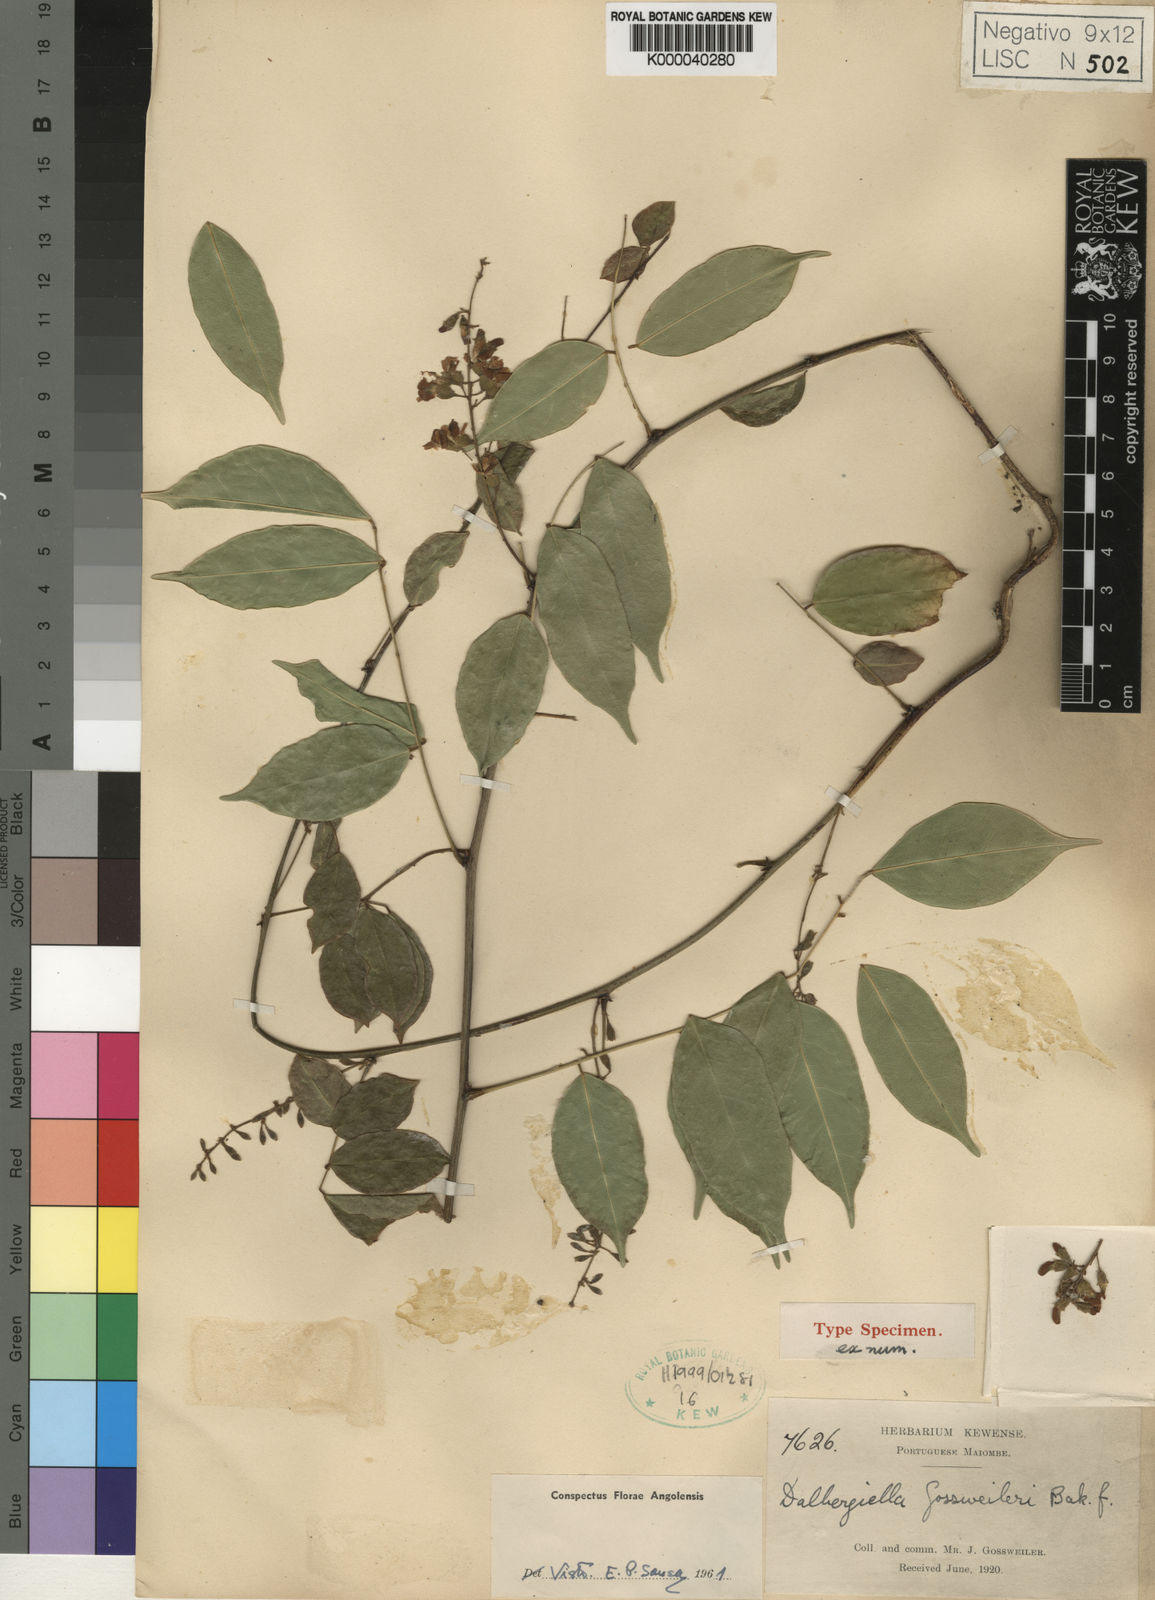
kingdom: Plantae
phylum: Tracheophyta
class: Magnoliopsida
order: Fabales
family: Fabaceae
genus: Dalbergiella
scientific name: Dalbergiella gossweileri
